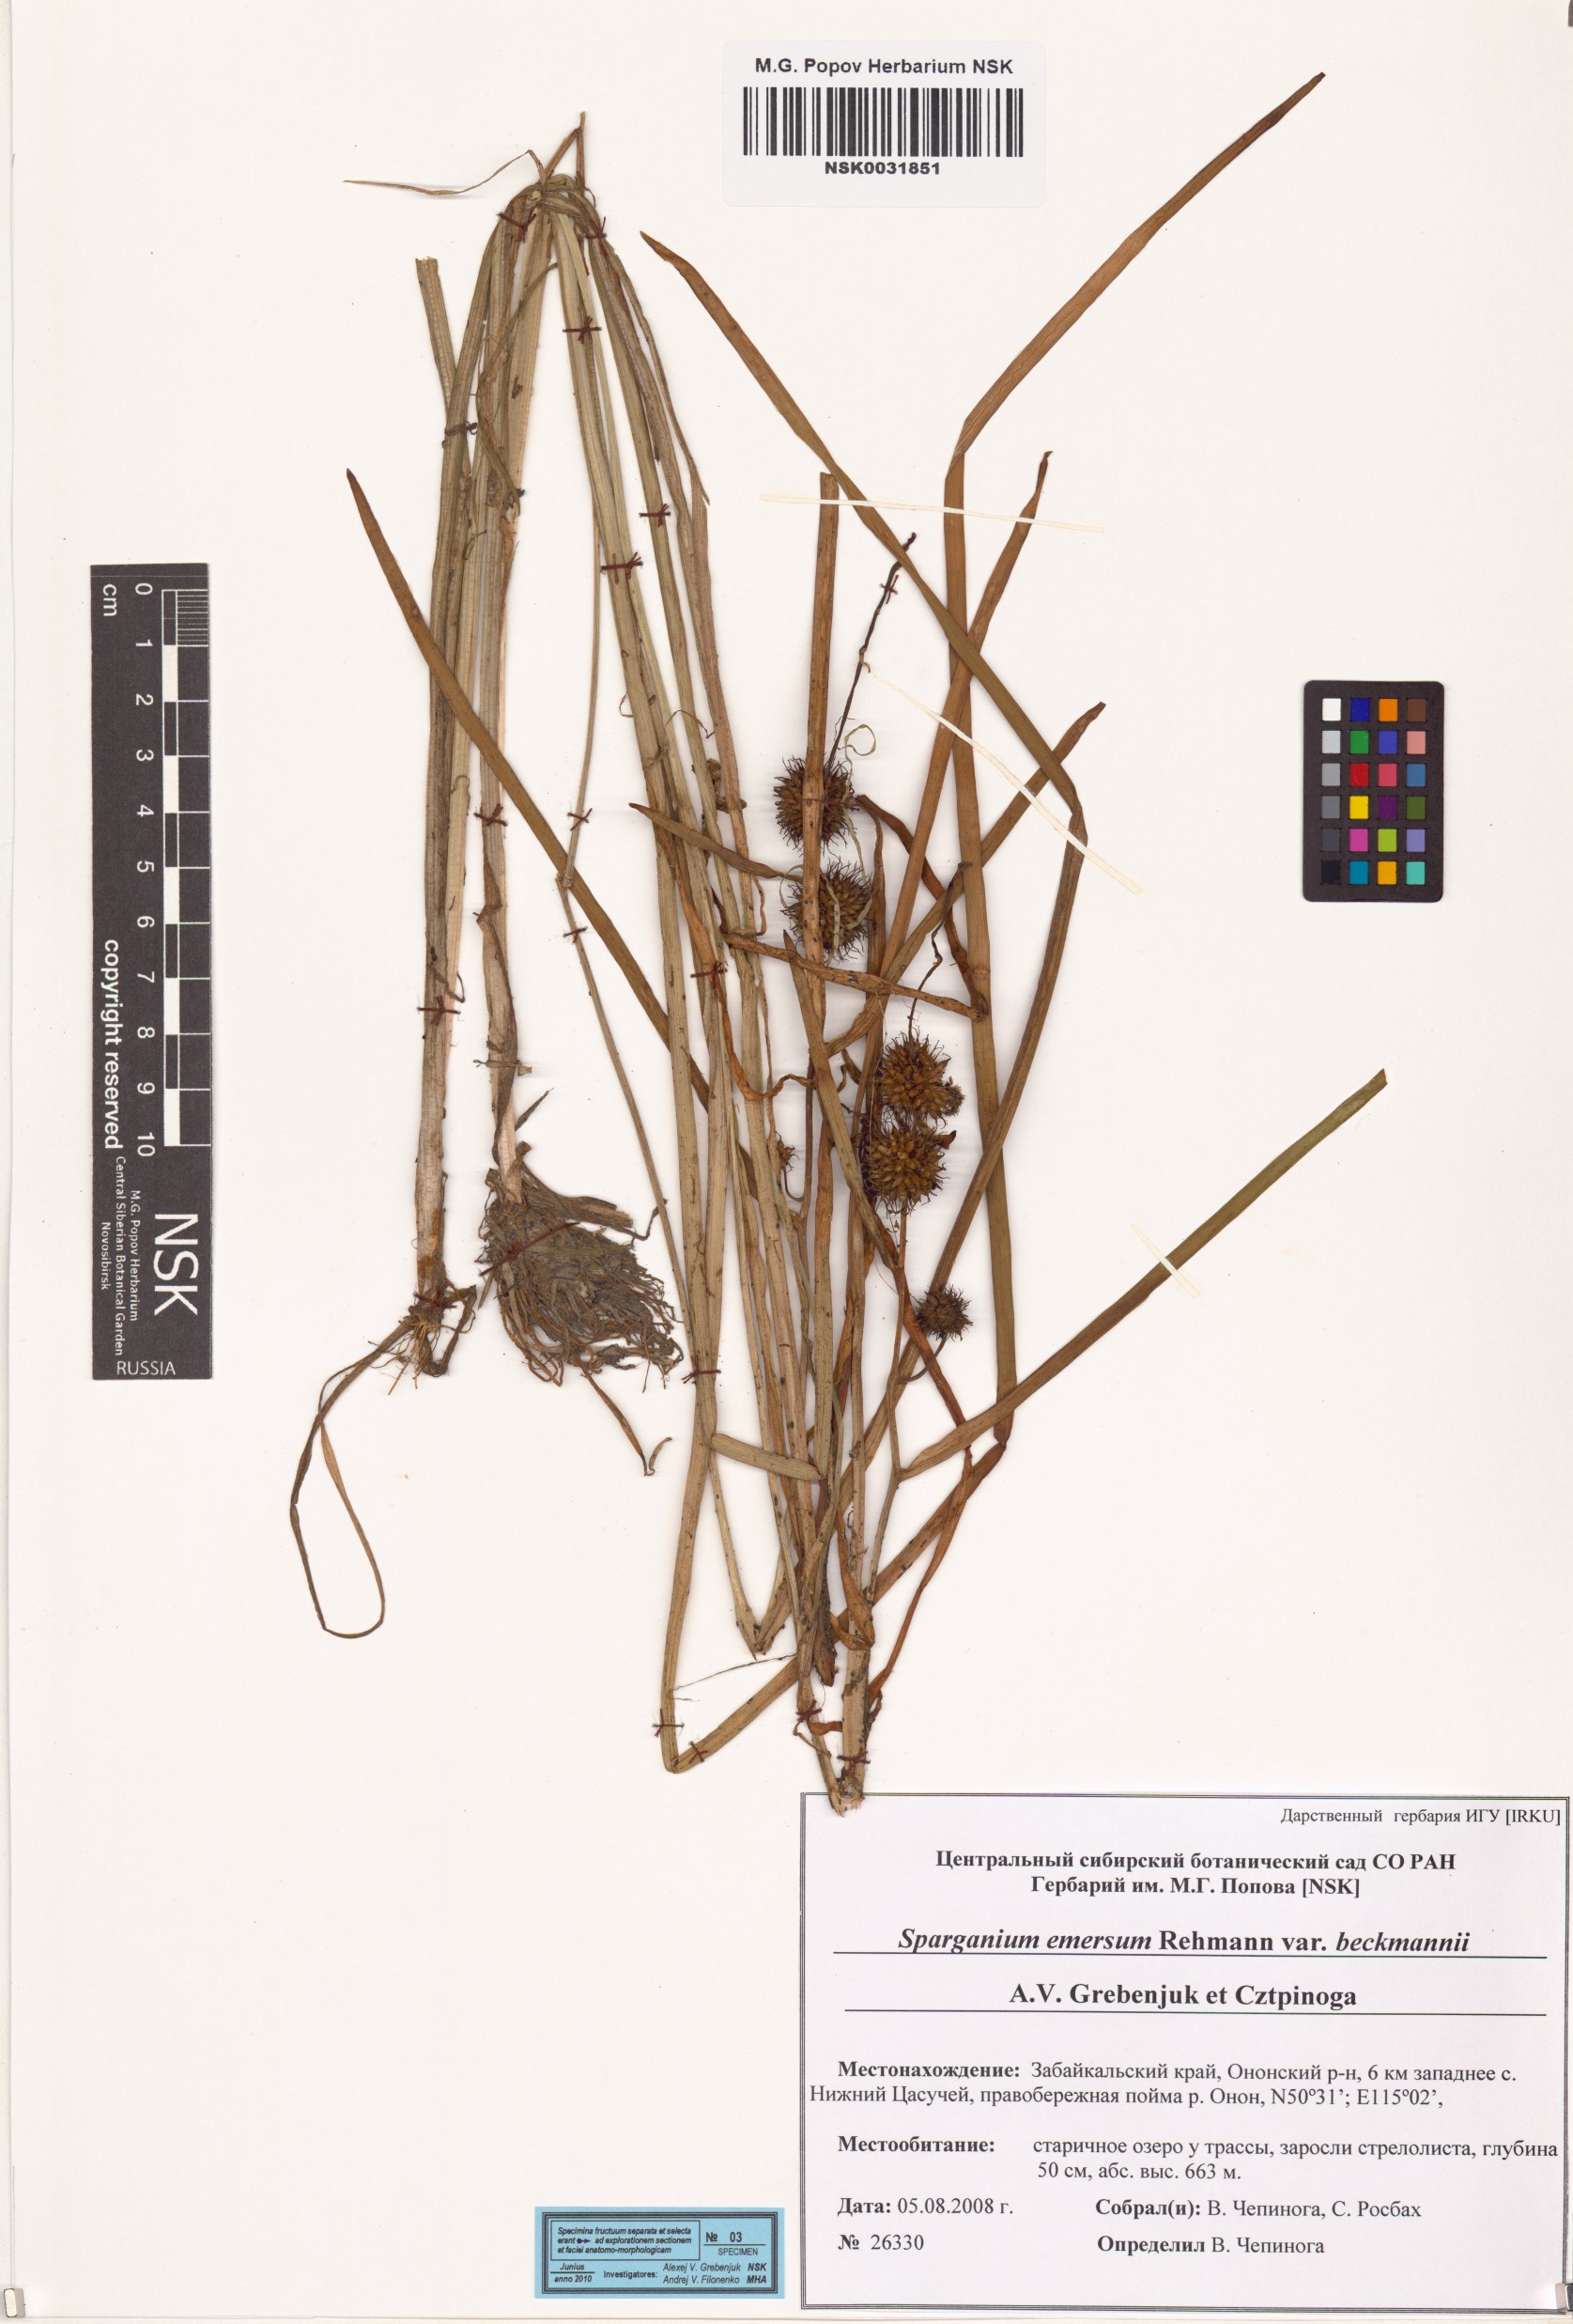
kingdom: Plantae
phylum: Tracheophyta
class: Liliopsida
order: Poales
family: Typhaceae
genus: Sparganium
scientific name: Sparganium emersum
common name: Unbranched bur-reed
